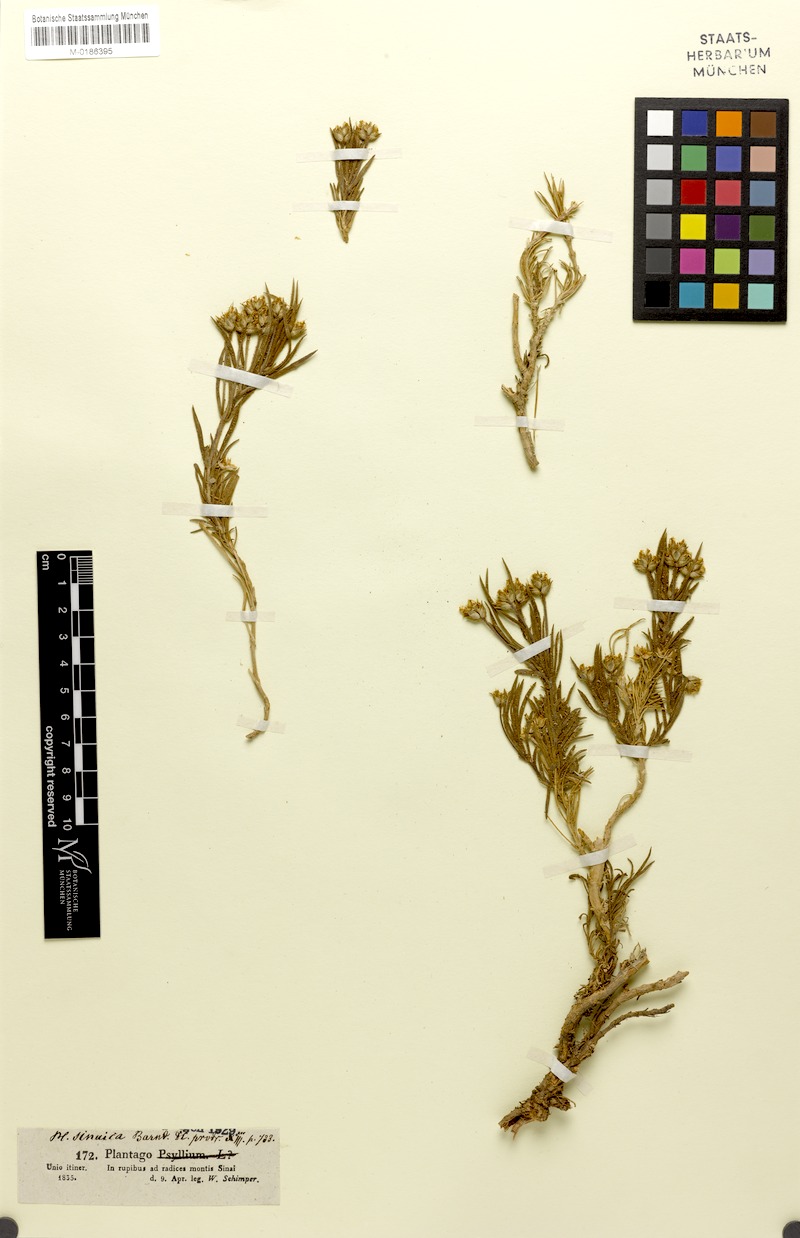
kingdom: Plantae
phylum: Tracheophyta
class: Magnoliopsida
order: Lamiales
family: Plantaginaceae
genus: Plantago
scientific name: Plantago sinaica
